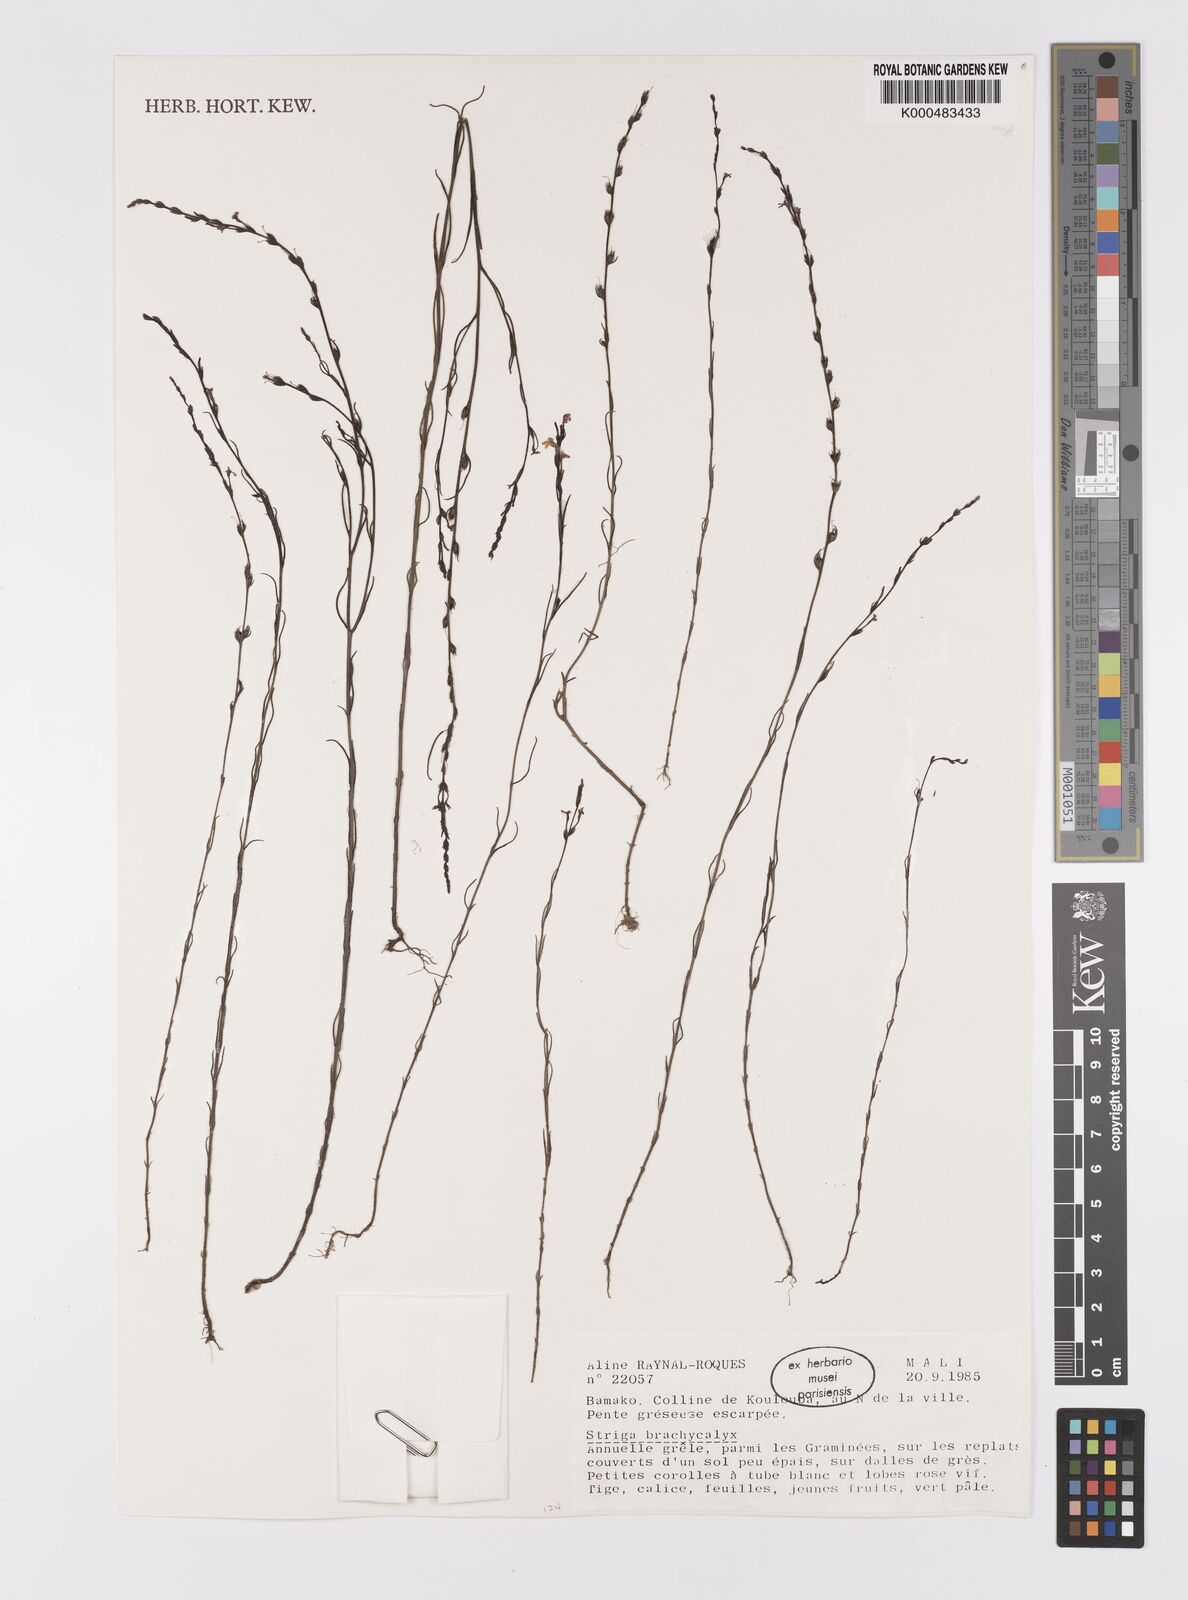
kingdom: Plantae
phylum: Tracheophyta
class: Magnoliopsida
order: Lamiales
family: Orobanchaceae
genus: Striga
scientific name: Striga brachycalyx
